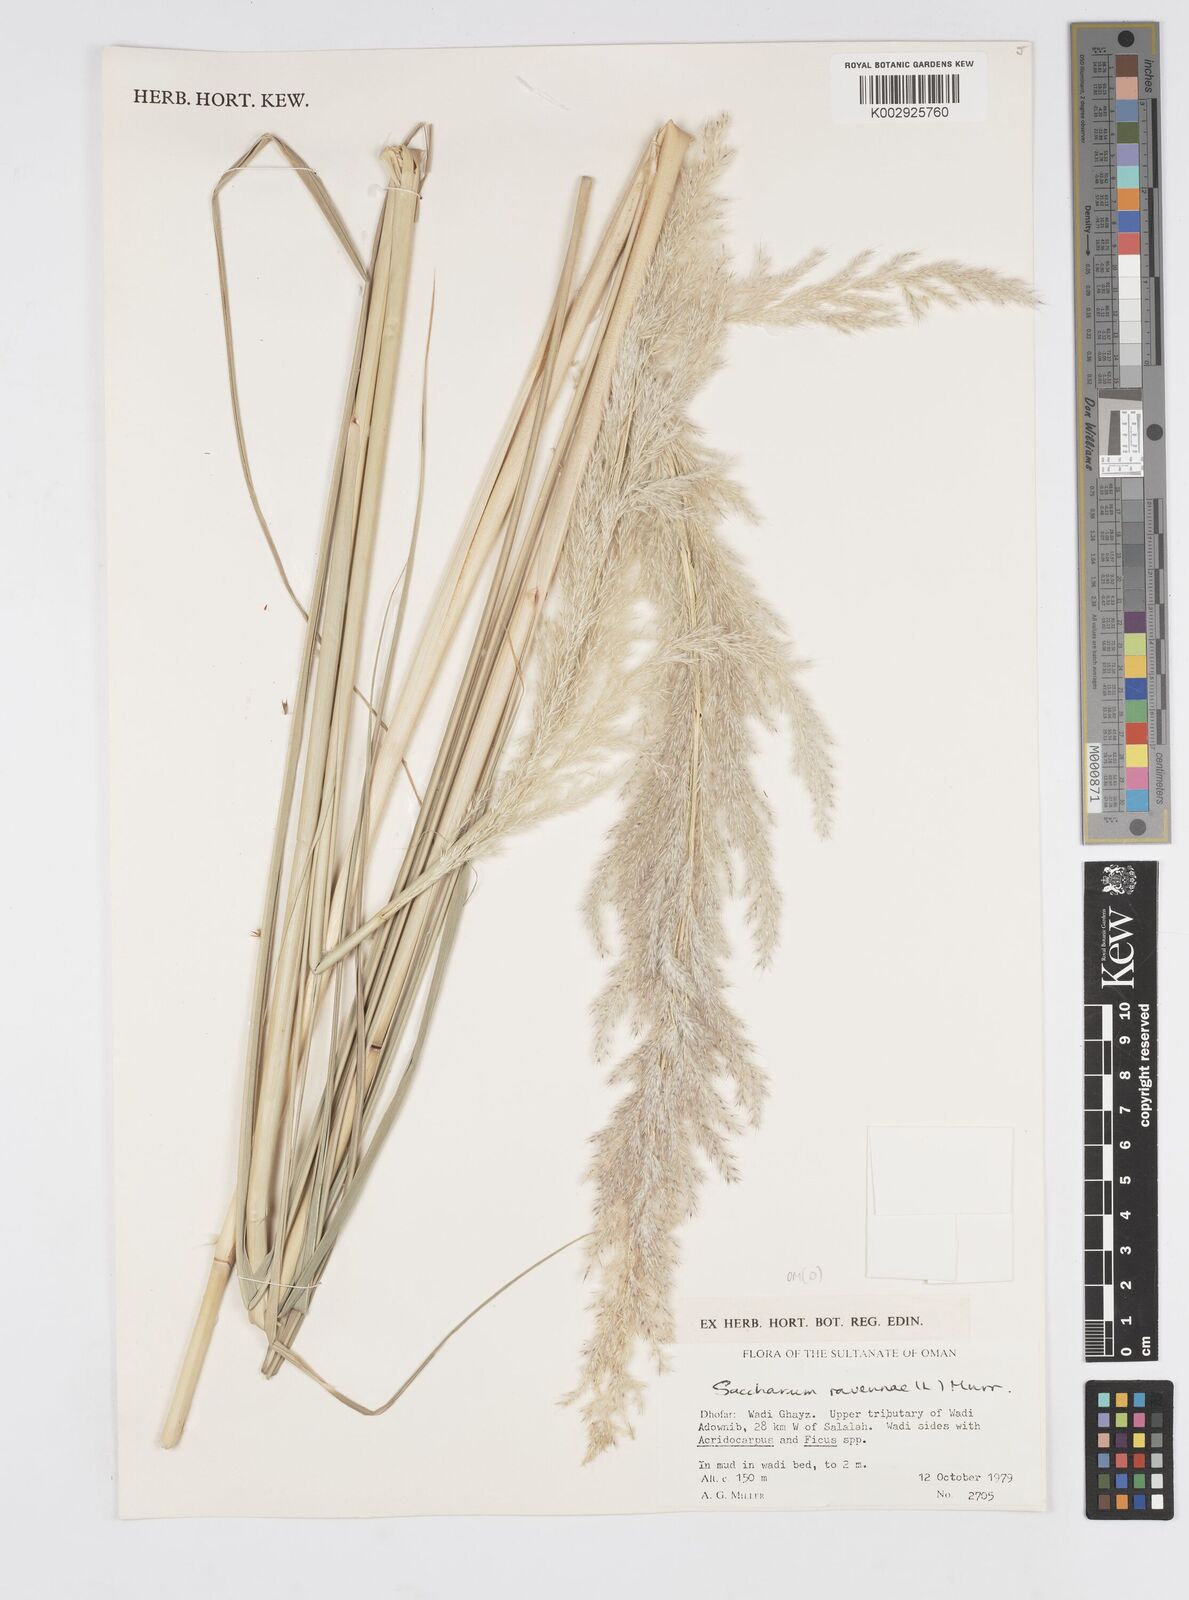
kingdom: Plantae
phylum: Tracheophyta
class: Liliopsida
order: Poales
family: Poaceae
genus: Tripidium
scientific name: Tripidium ravennae
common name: Ravenna grass
